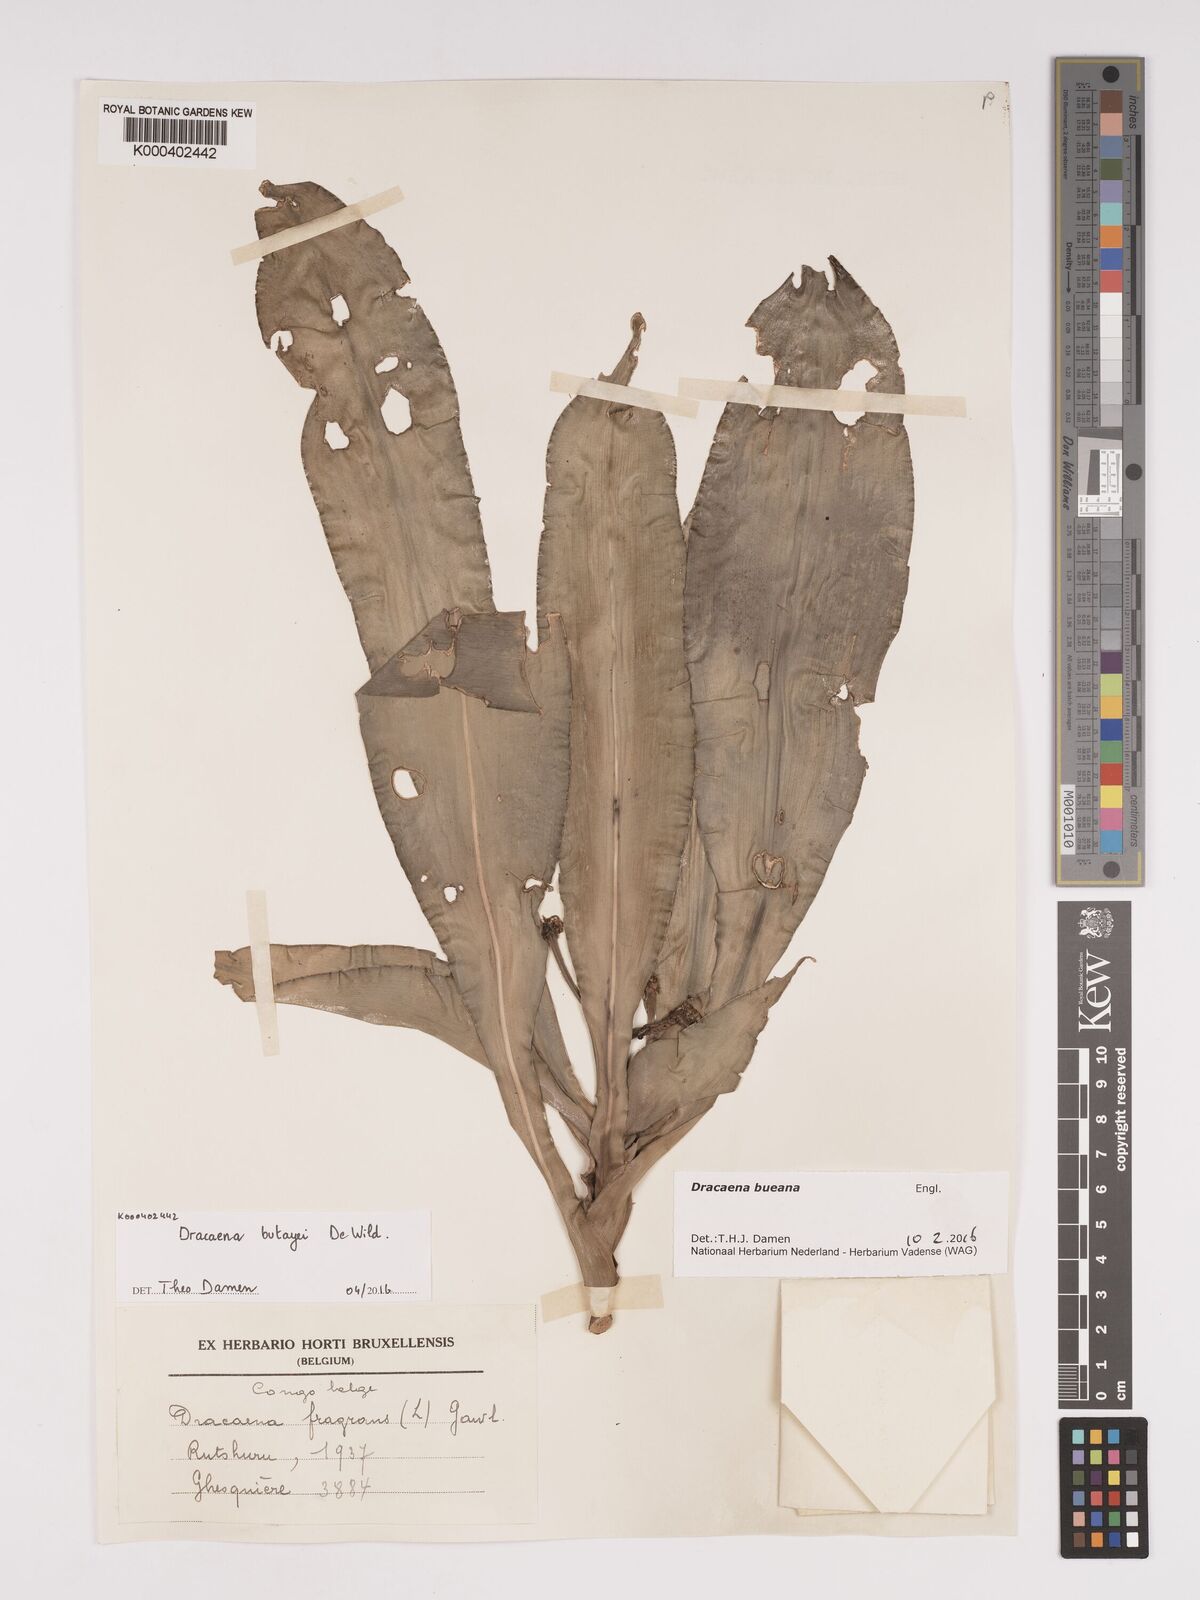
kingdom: Plantae
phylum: Tracheophyta
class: Liliopsida
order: Asparagales
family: Asparagaceae
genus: Dracaena
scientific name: Dracaena fragrans
